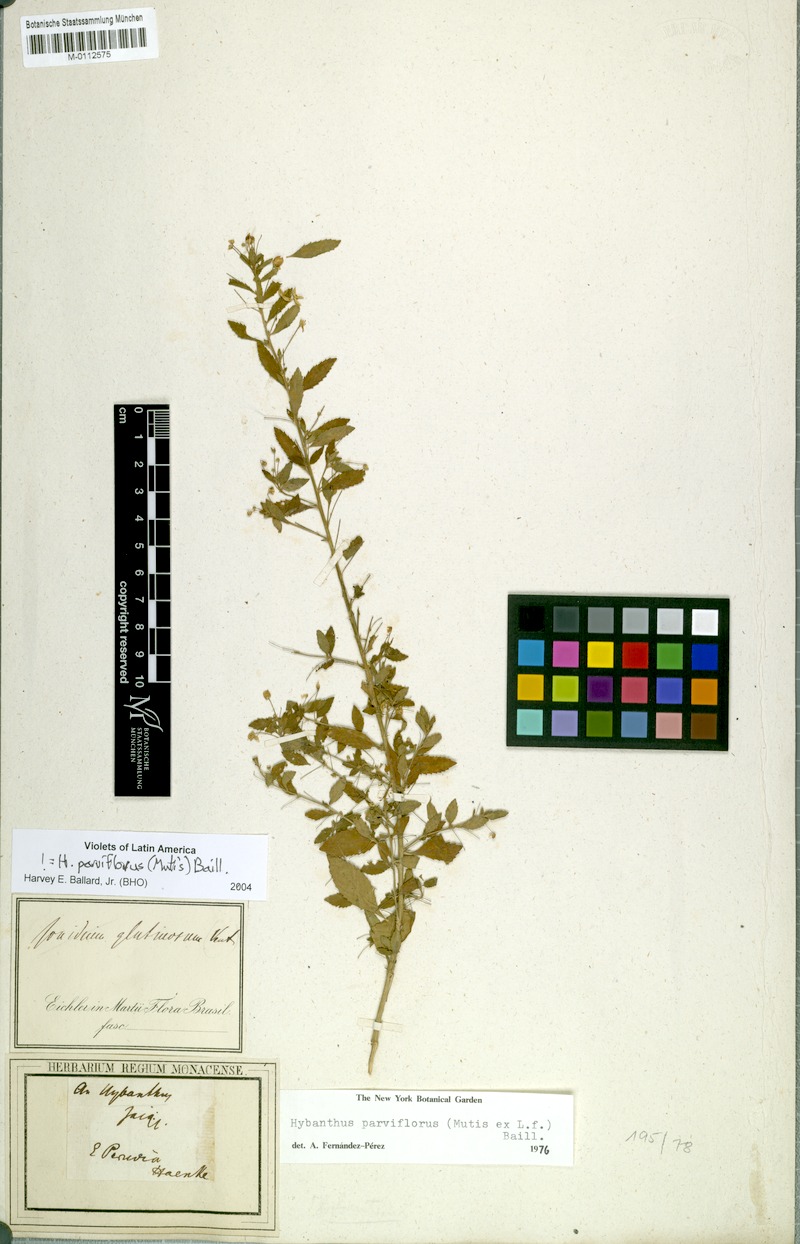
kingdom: Plantae
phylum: Tracheophyta
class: Magnoliopsida
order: Malpighiales
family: Violaceae
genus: Pombalia
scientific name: Pombalia parviflora
